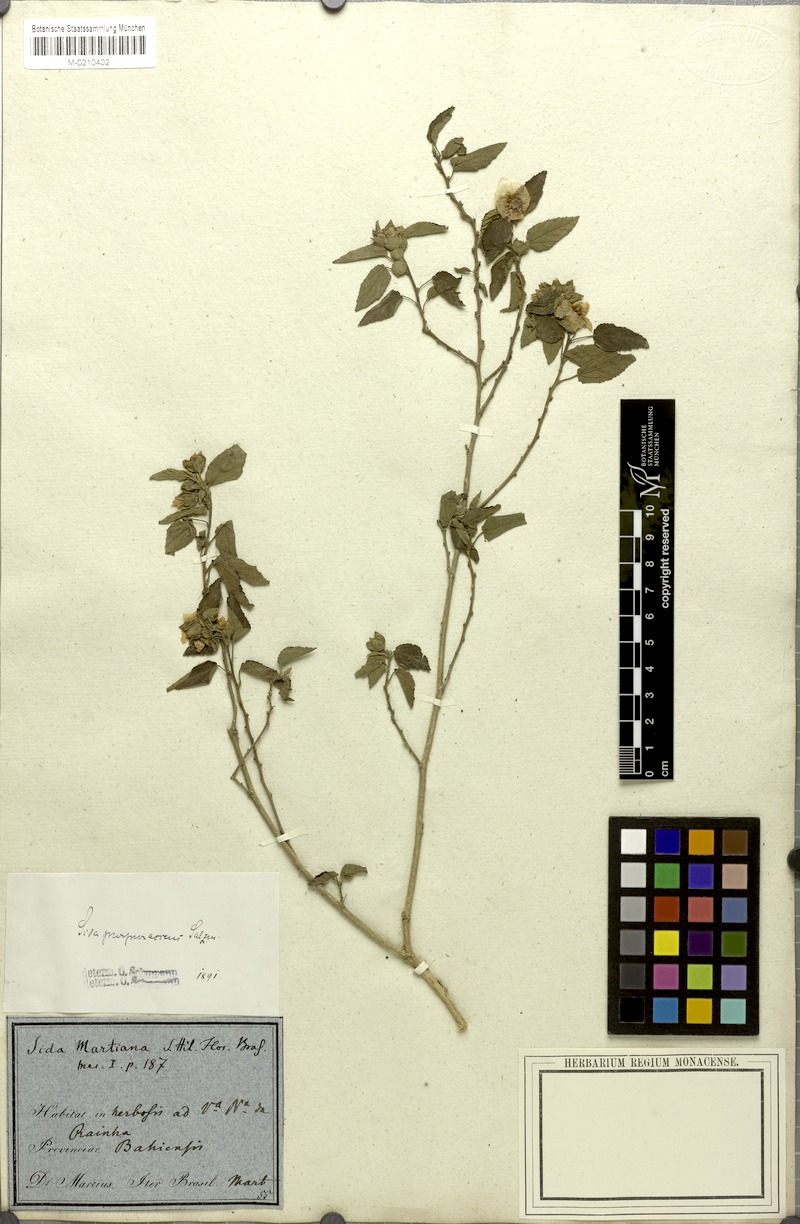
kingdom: Plantae
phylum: Tracheophyta
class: Magnoliopsida
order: Malvales
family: Malvaceae
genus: Bakeridesia
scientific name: Bakeridesia esculenta
